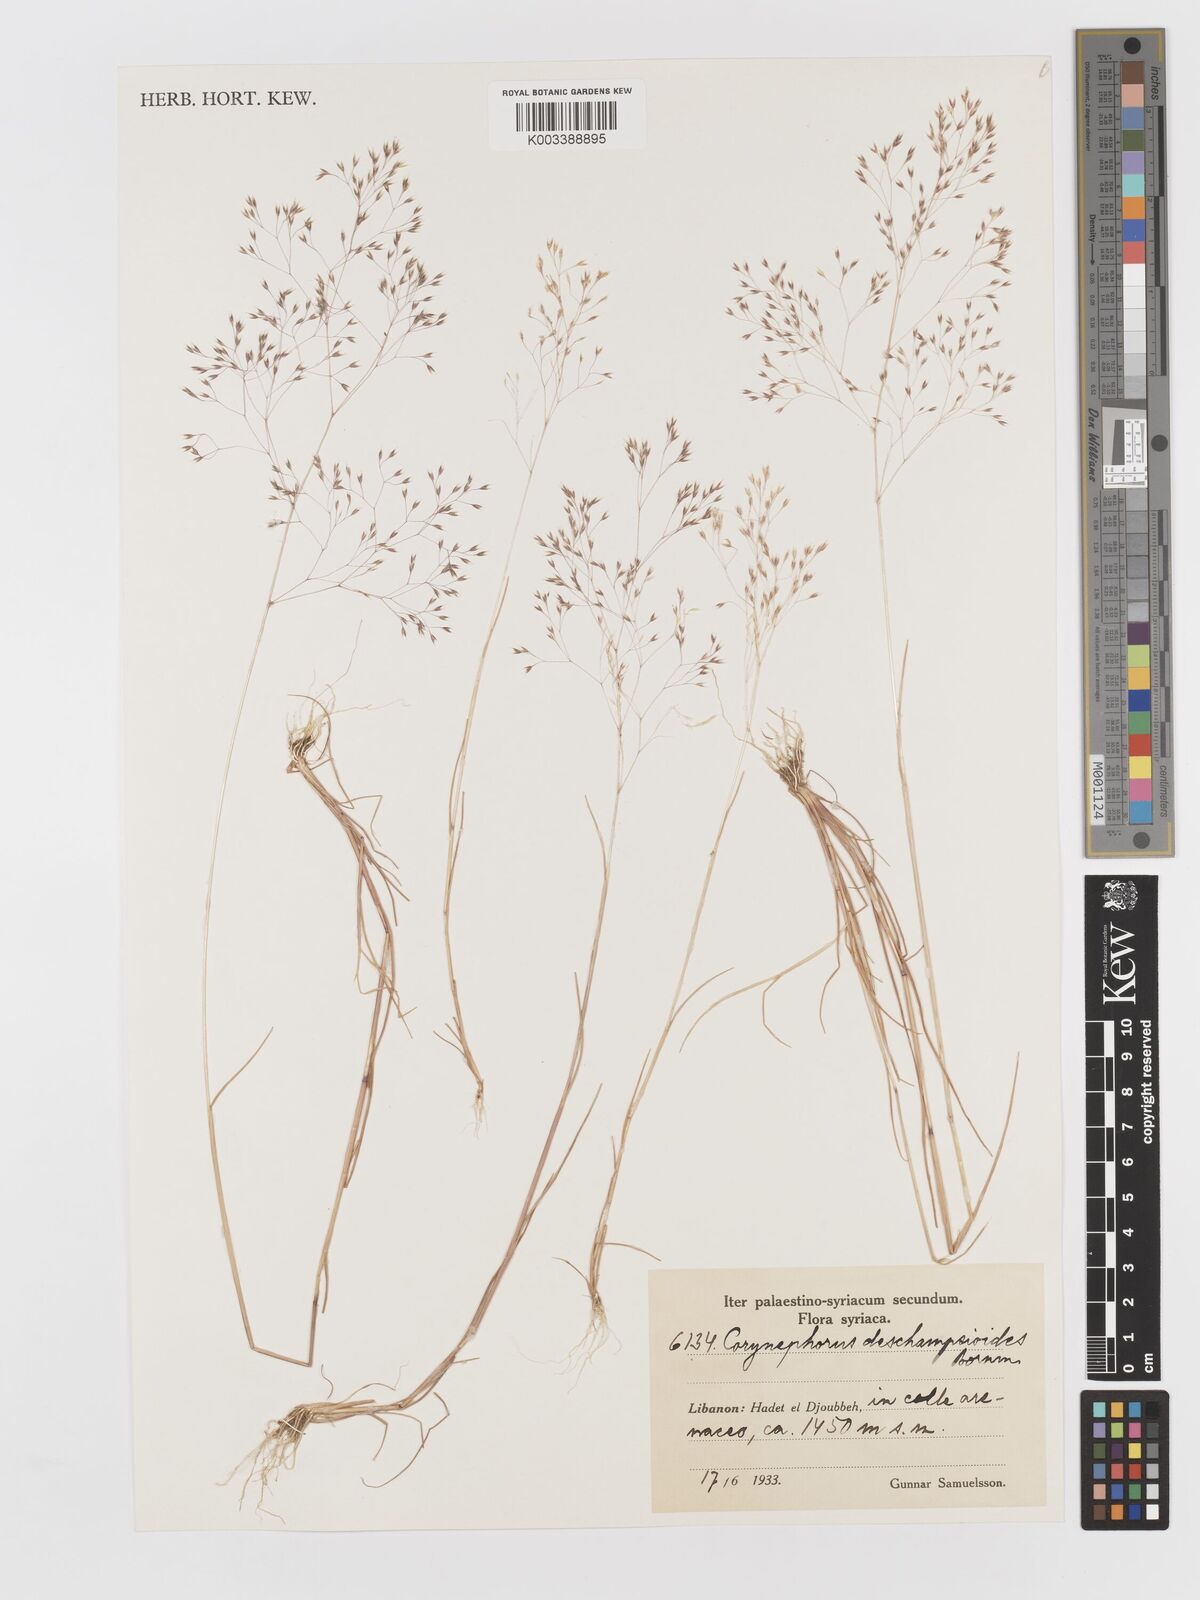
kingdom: Plantae
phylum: Tracheophyta
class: Liliopsida
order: Poales
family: Poaceae
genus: Corynephorus
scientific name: Corynephorus deschampsioides
